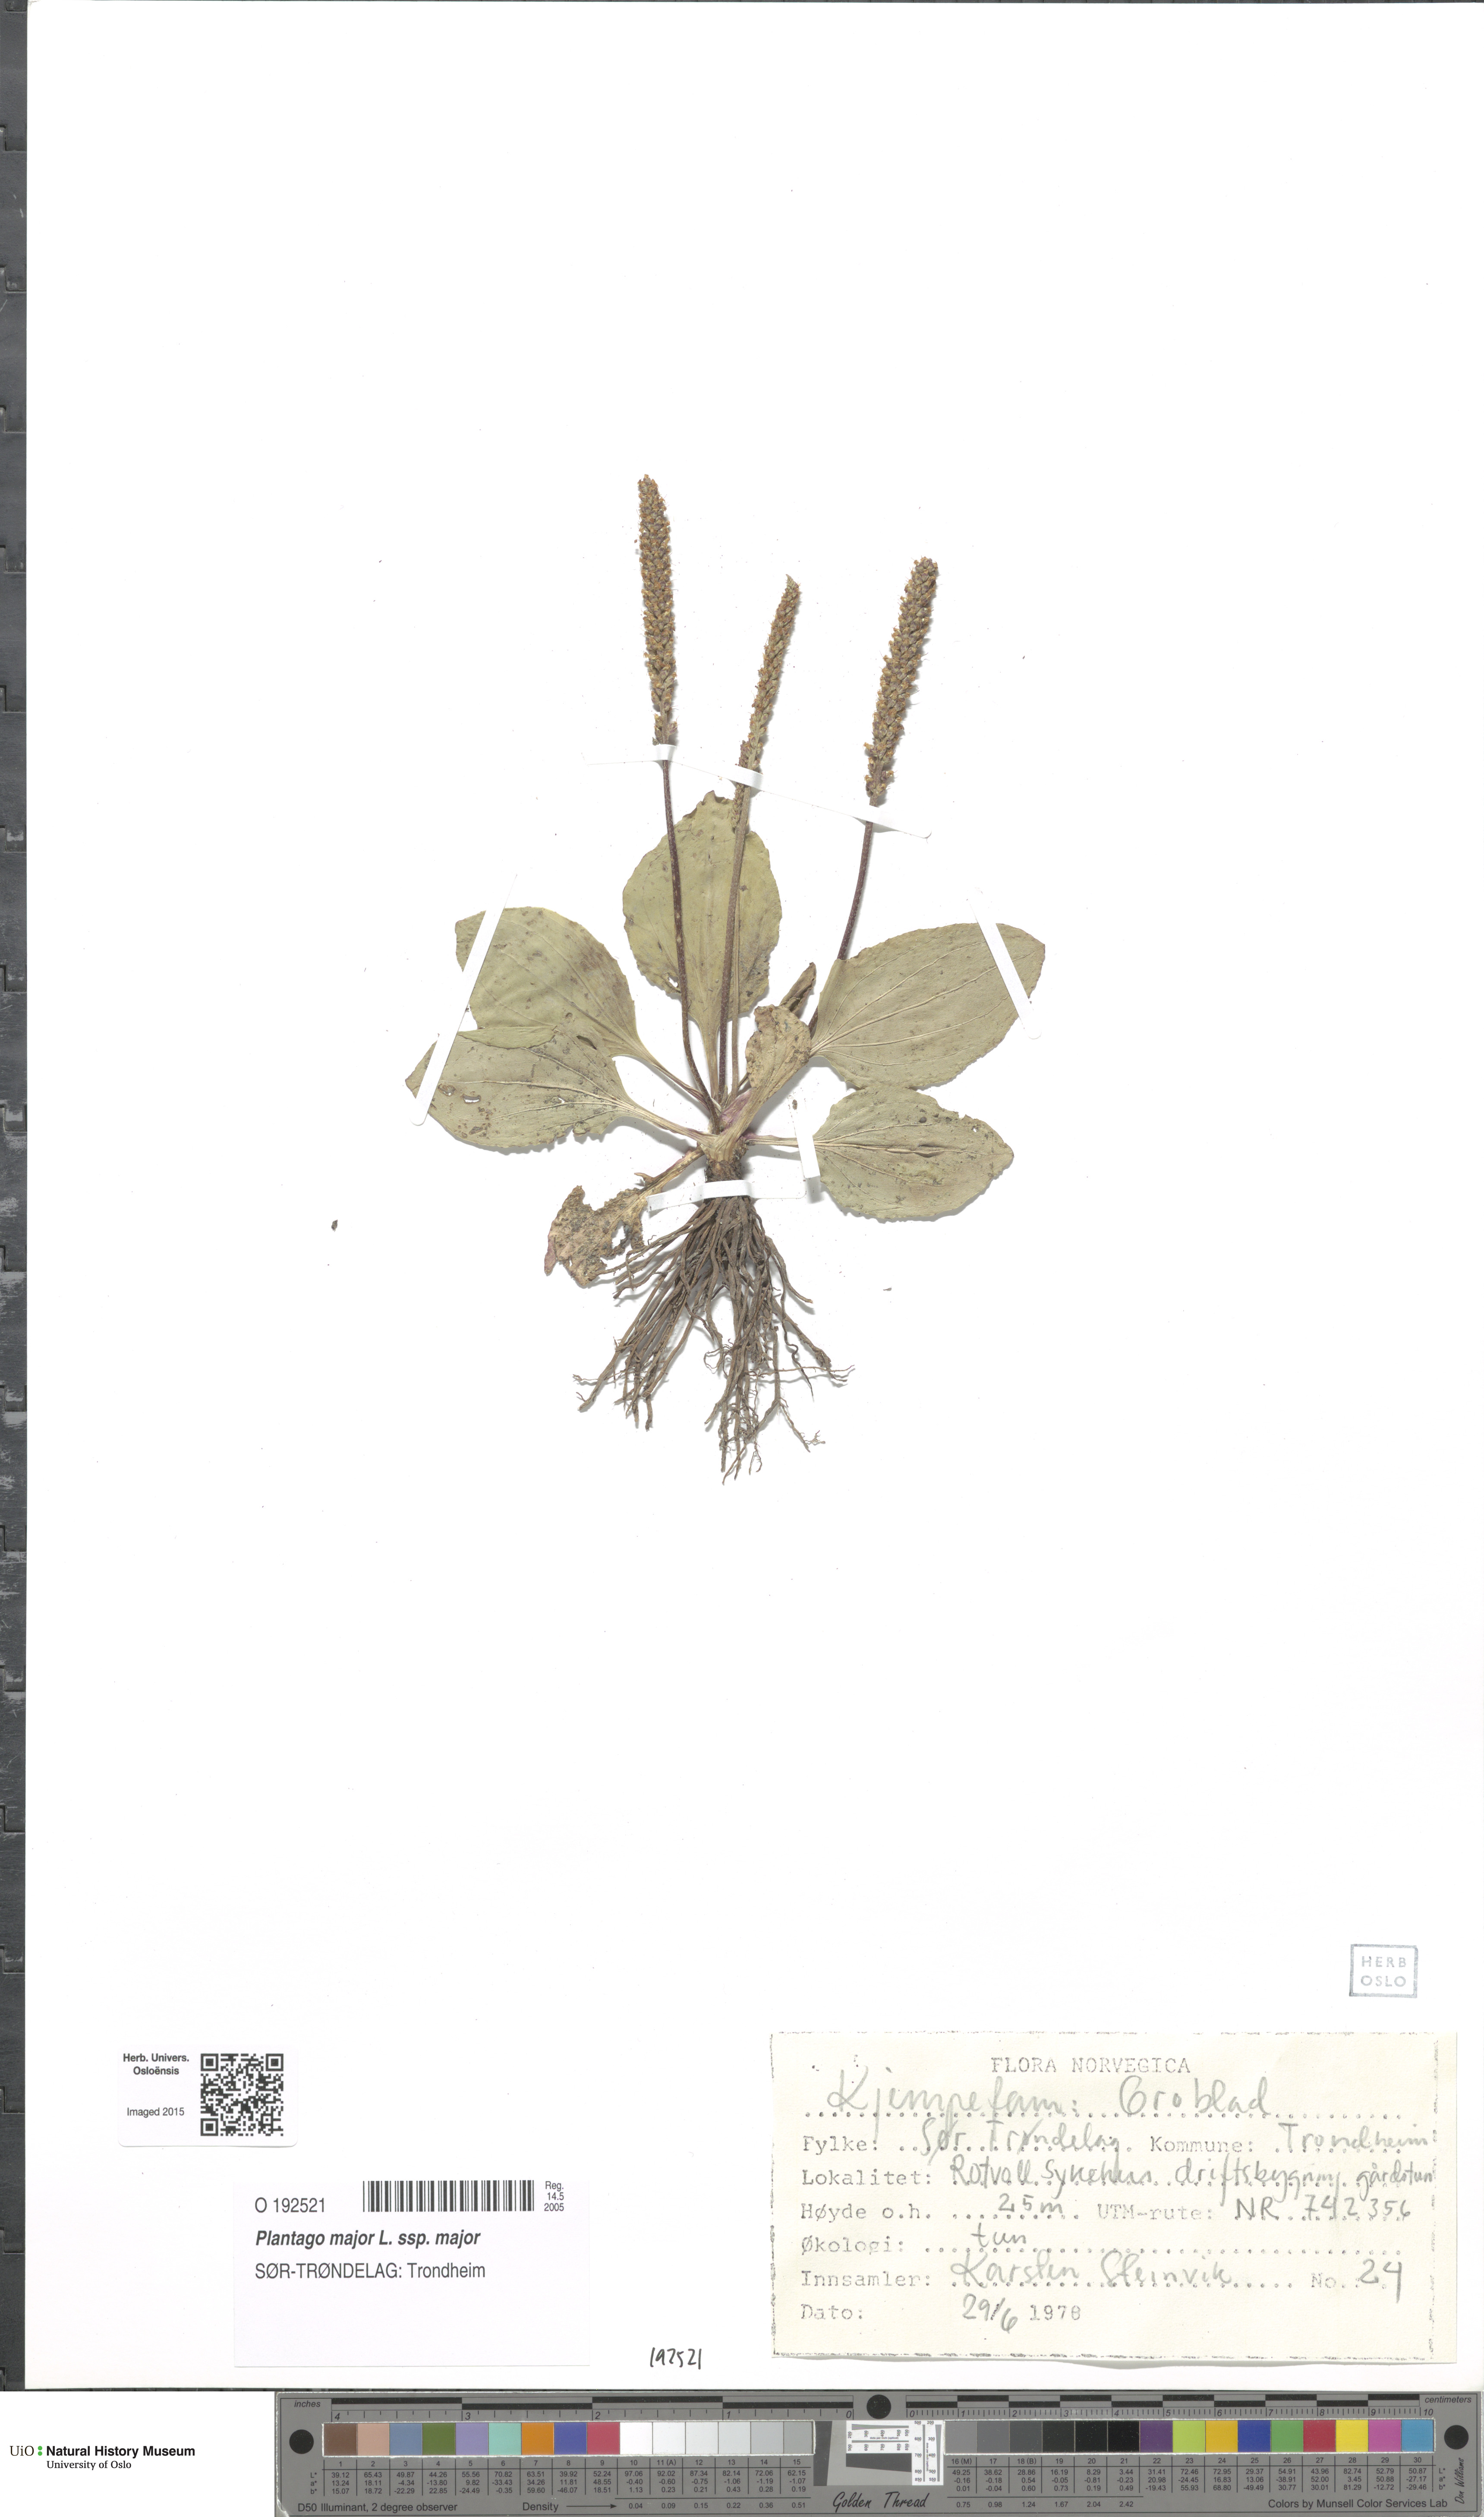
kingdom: Plantae
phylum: Tracheophyta
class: Magnoliopsida
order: Lamiales
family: Plantaginaceae
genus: Plantago
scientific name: Plantago major
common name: Common plantain
